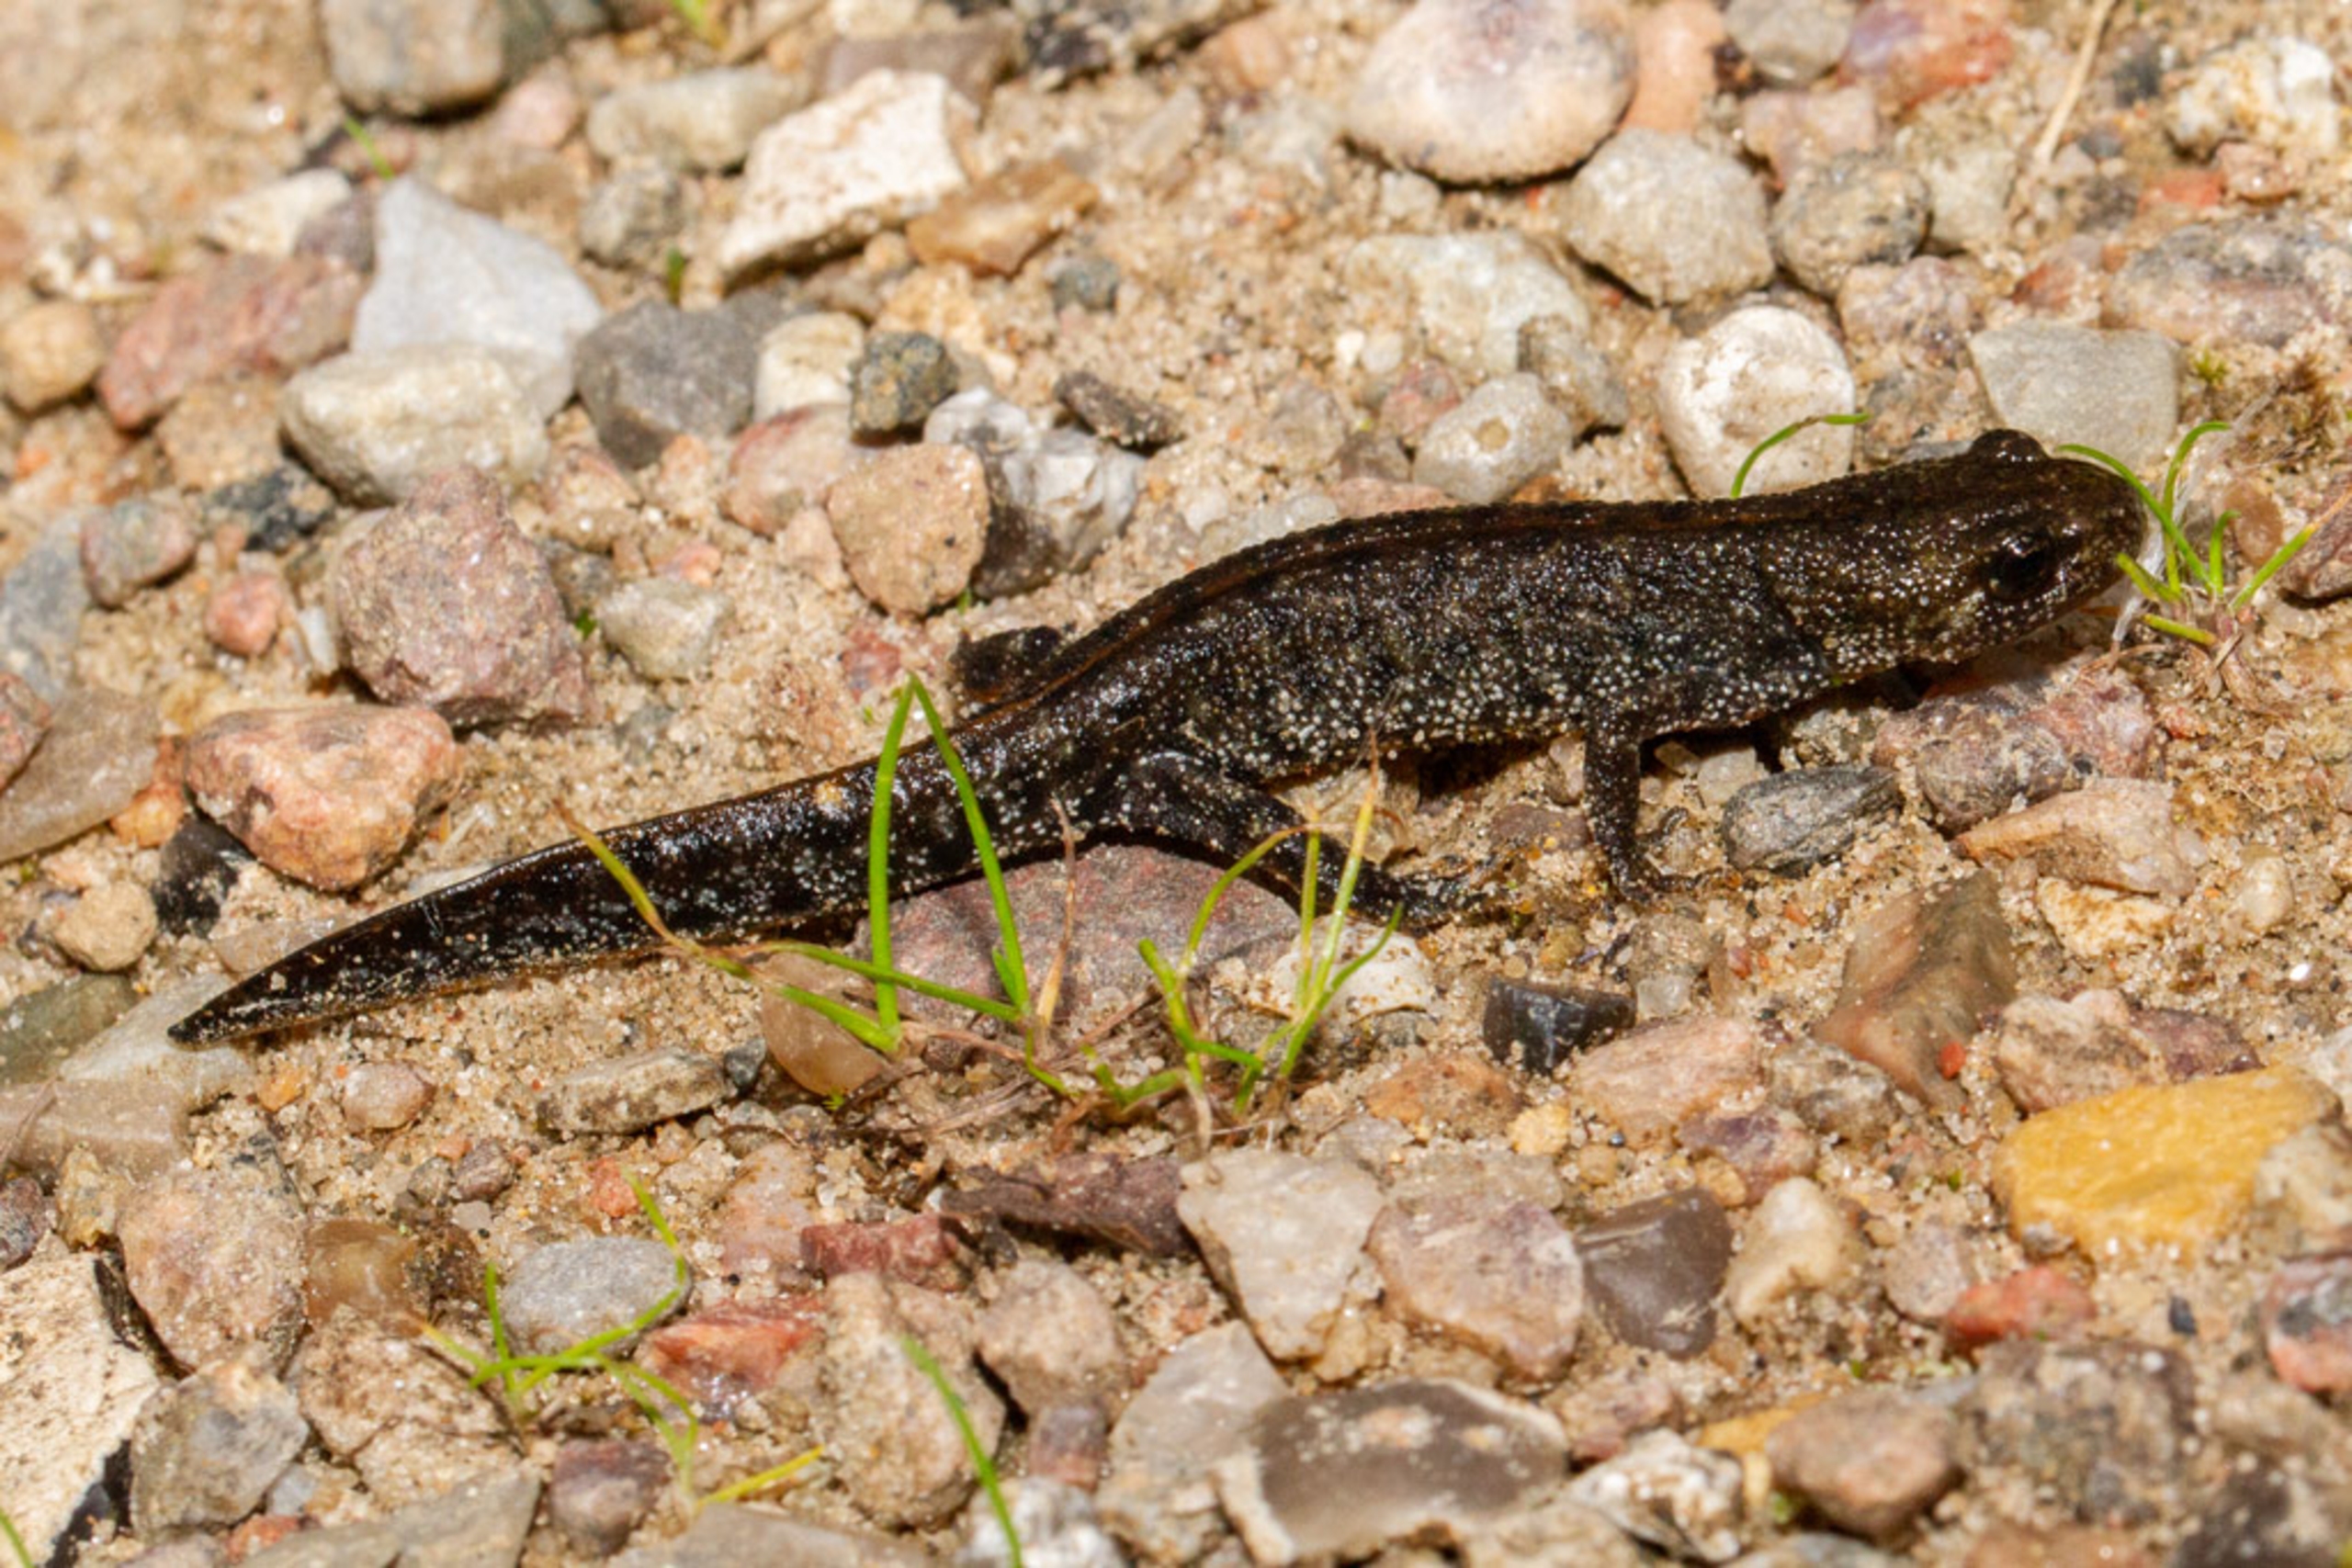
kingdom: Animalia
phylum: Chordata
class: Amphibia
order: Caudata
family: Salamandridae
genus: Triturus
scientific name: Triturus cristatus
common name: Stor vandsalamander
